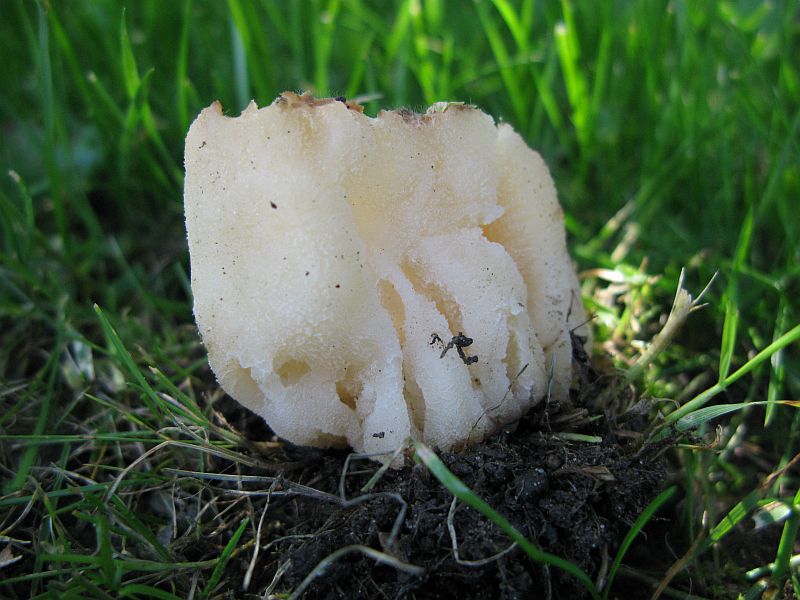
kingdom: Fungi
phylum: Ascomycota
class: Pezizomycetes
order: Pezizales
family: Morchellaceae
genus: Morchella
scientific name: Morchella esculenta
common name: spiselig morkel
